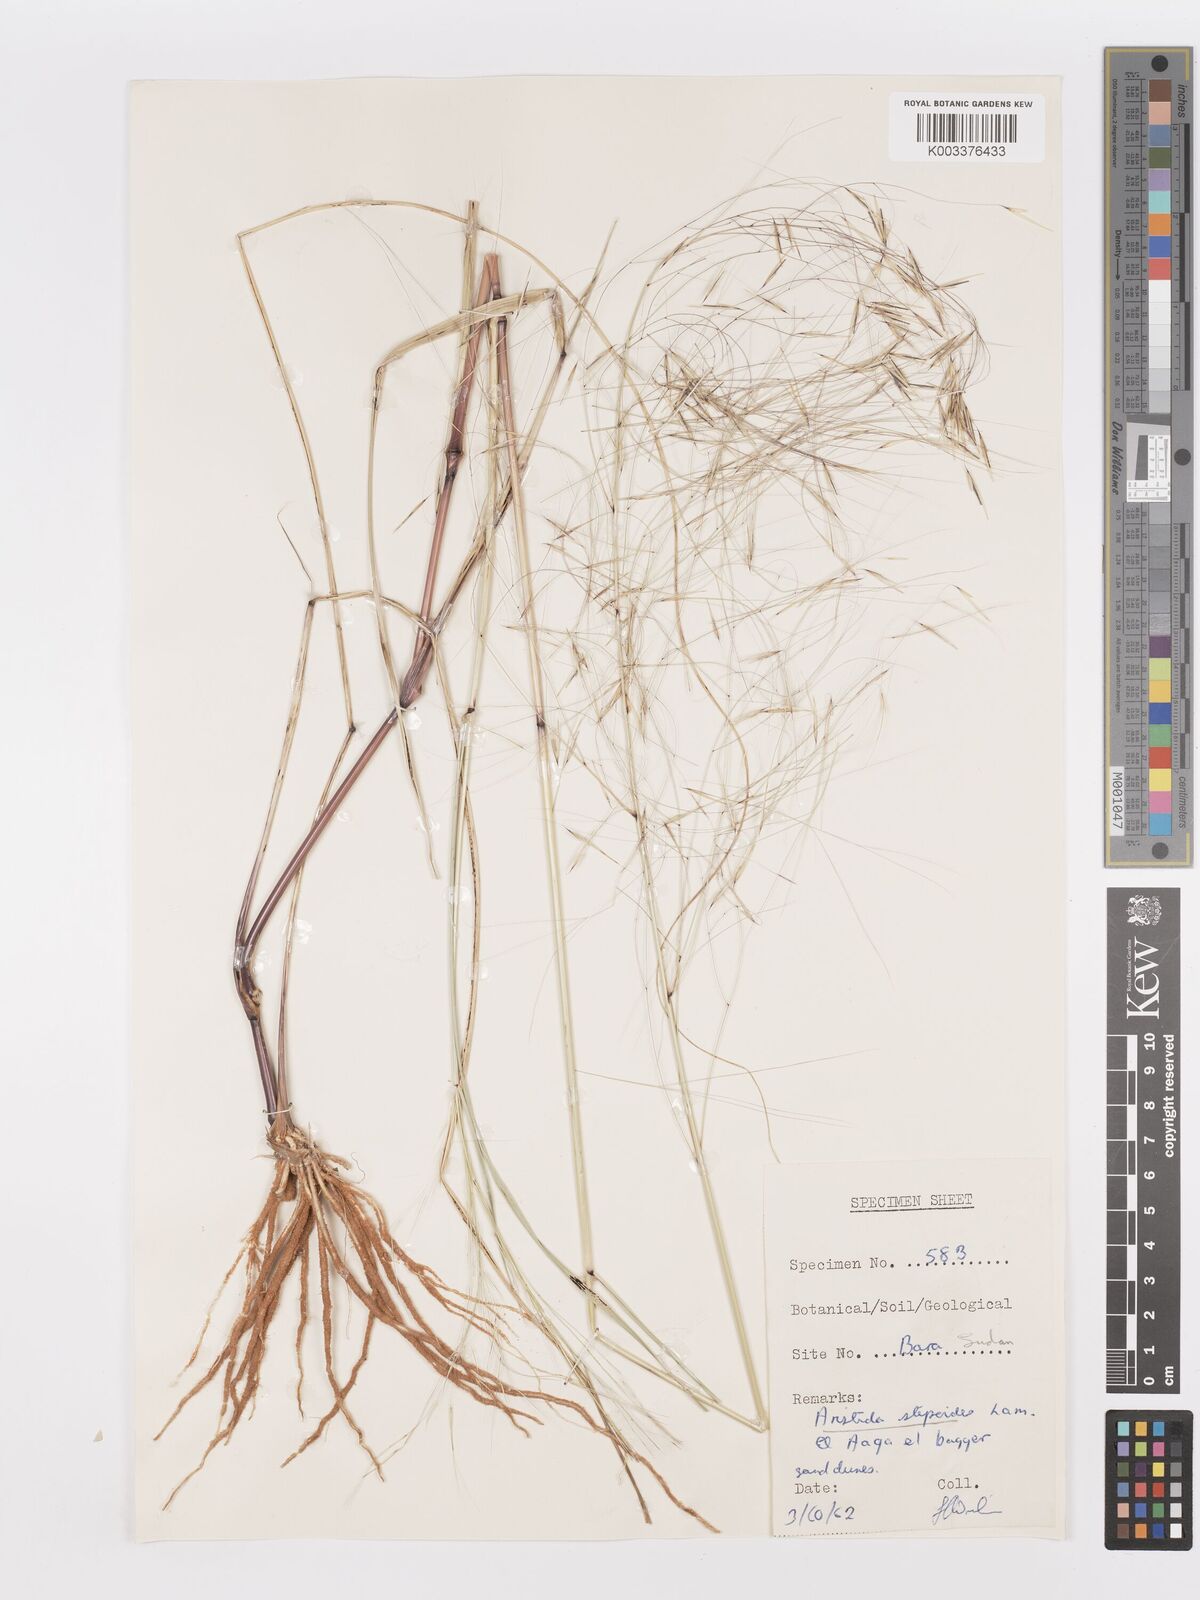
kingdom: Plantae
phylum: Tracheophyta
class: Liliopsida
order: Poales
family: Poaceae
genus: Aristida
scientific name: Aristida stipoides
